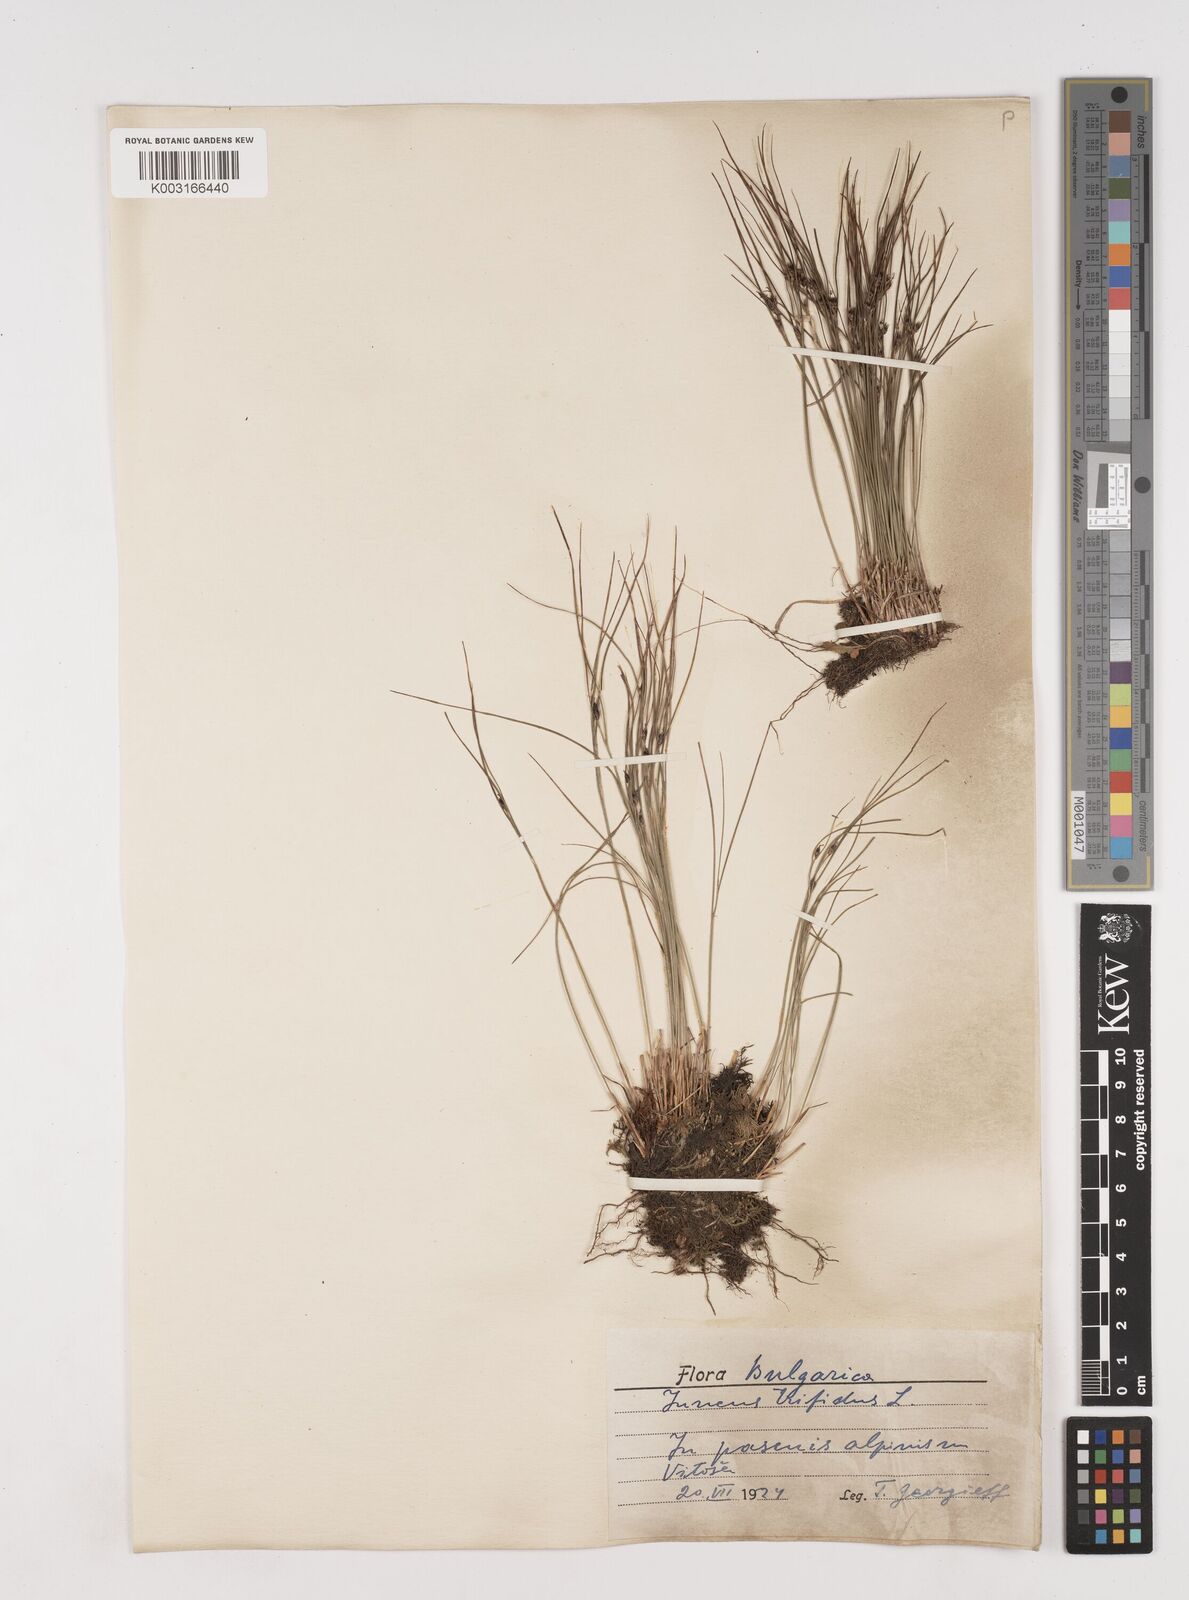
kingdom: Plantae
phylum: Tracheophyta
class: Liliopsida
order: Poales
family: Juncaceae
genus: Oreojuncus
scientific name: Oreojuncus trifidus
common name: Highland rush
